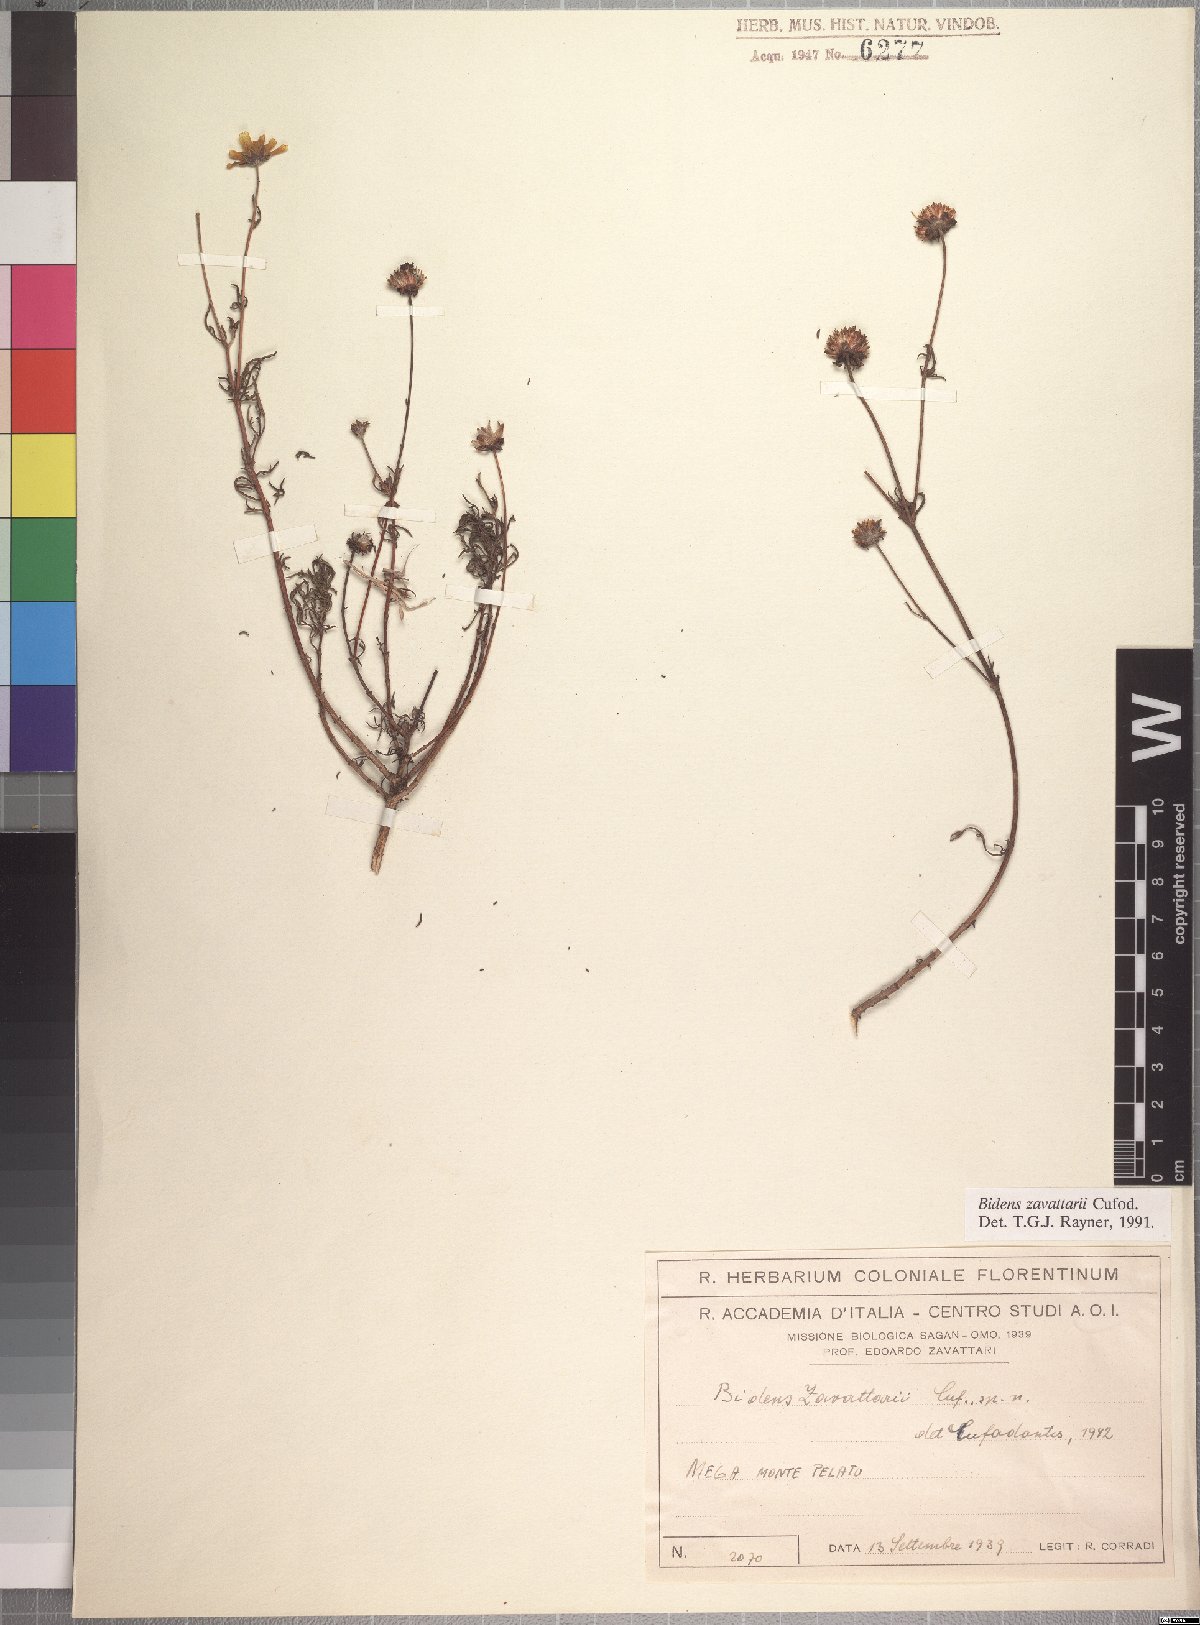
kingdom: Plantae
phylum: Tracheophyta
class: Magnoliopsida
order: Asterales
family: Asteraceae
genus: Bidens
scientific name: Bidens zavattarii
